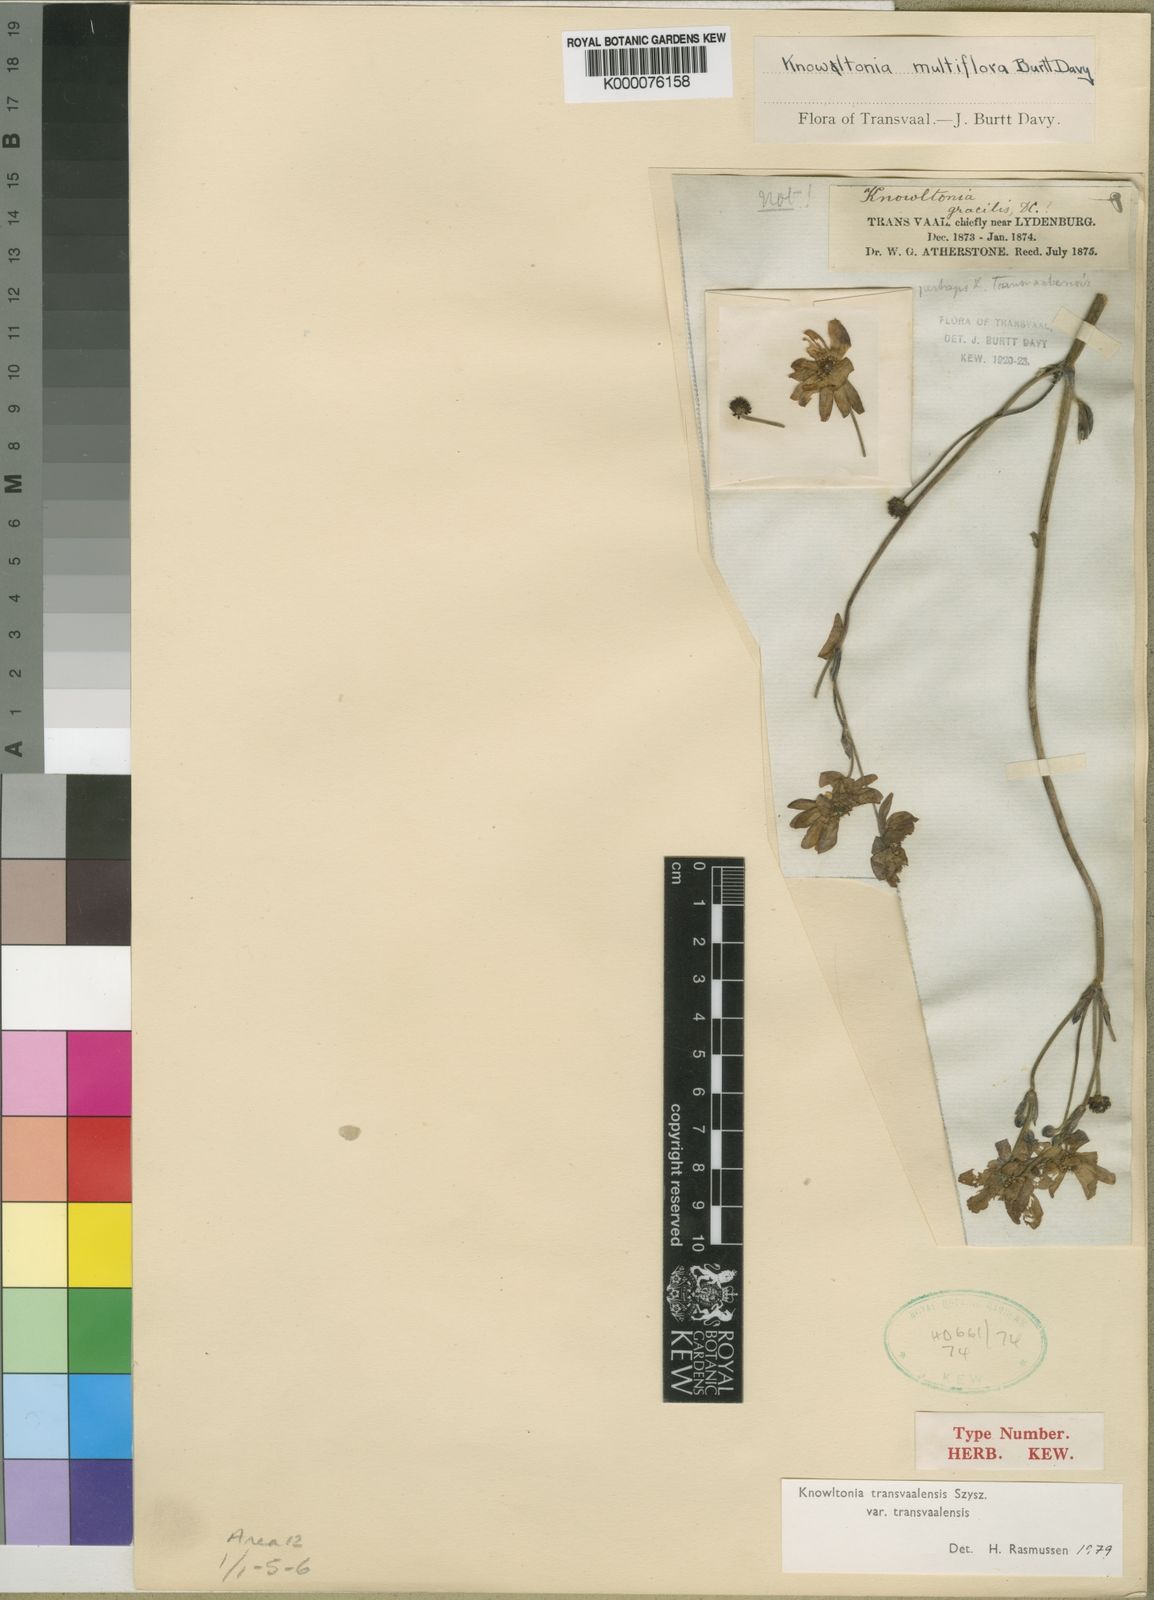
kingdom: Plantae
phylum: Tracheophyta
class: Magnoliopsida
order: Ranunculales
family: Ranunculaceae
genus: Knowltonia
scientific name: Knowltonia transvaalensis
